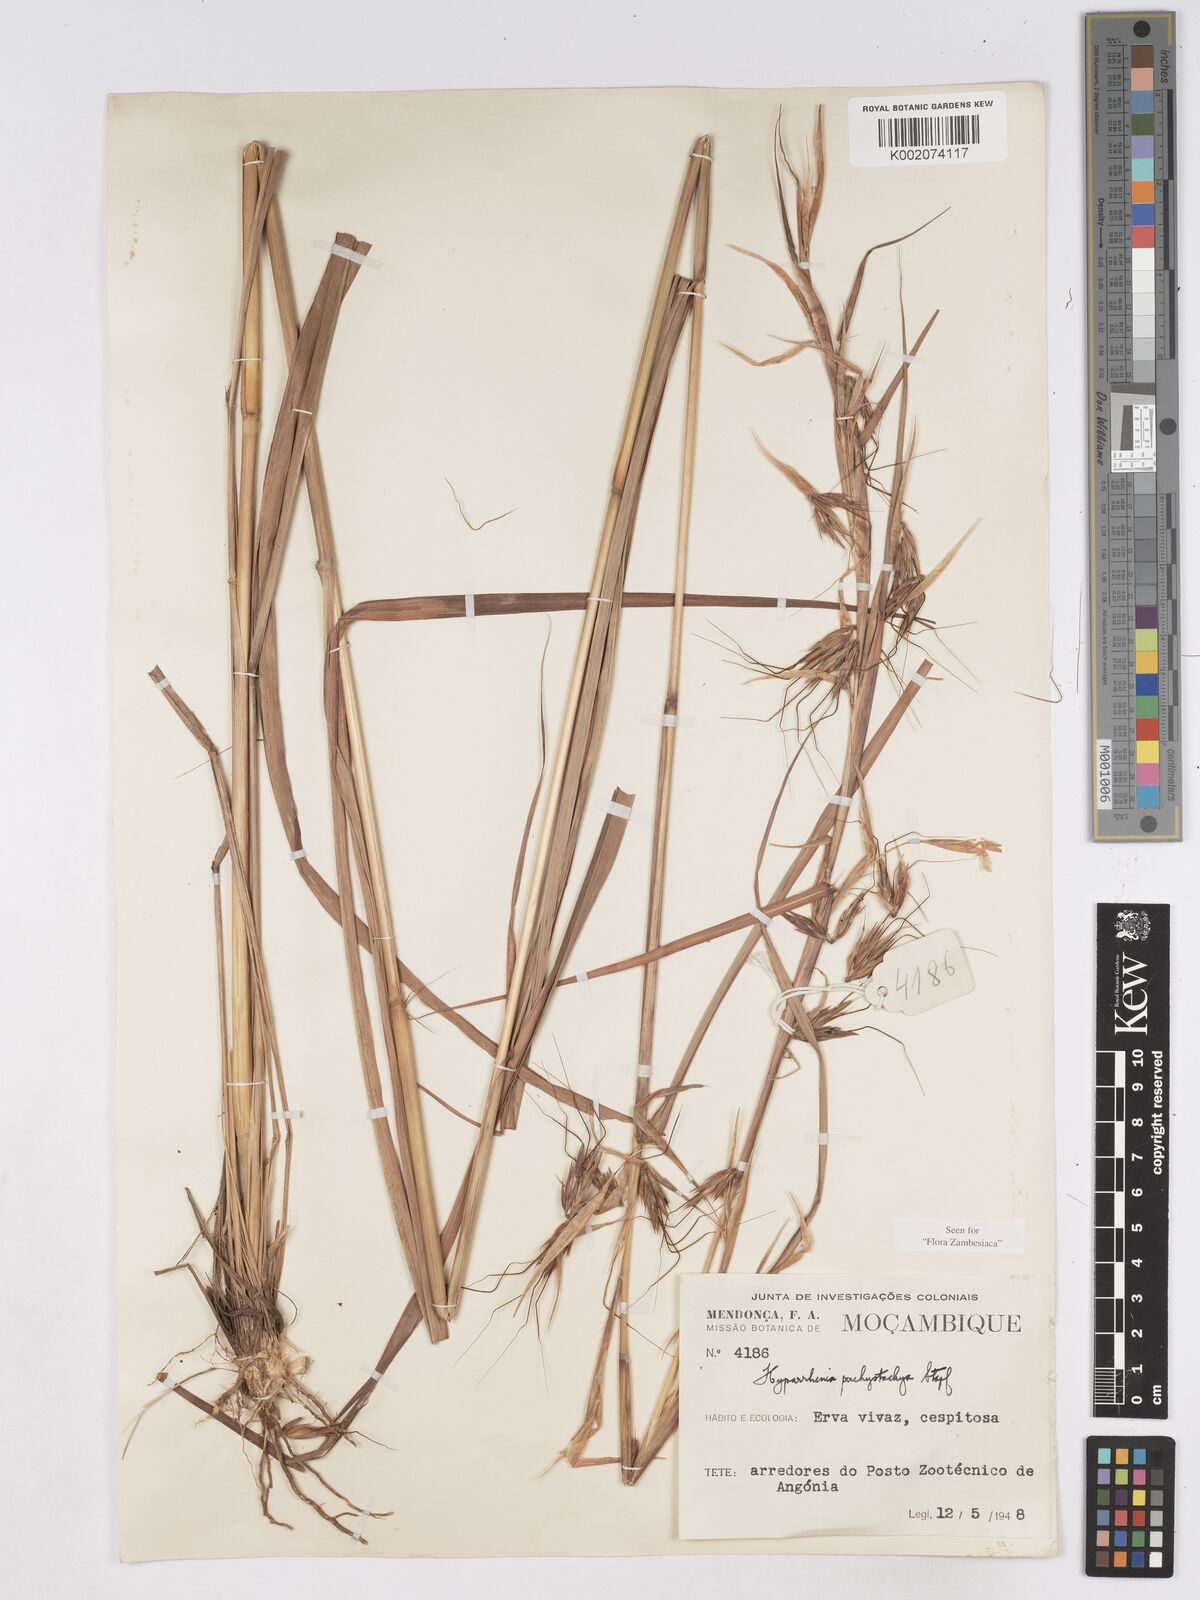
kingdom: Plantae
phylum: Tracheophyta
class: Liliopsida
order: Poales
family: Poaceae
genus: Hyparrhenia
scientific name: Hyparrhenia diplandra
